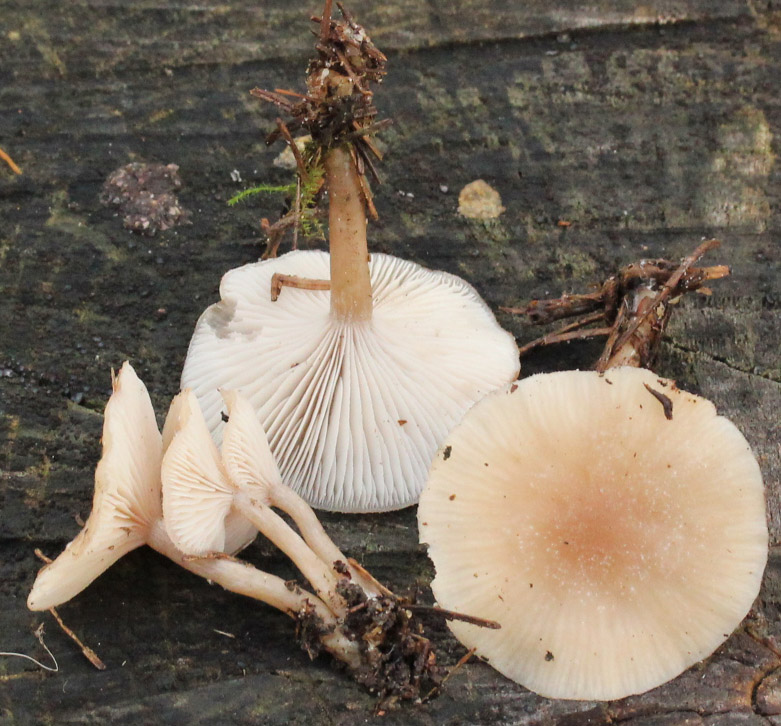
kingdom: Fungi
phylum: Basidiomycota
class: Agaricomycetes
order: Agaricales
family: Tricholomataceae
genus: Clitocybe
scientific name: Clitocybe fragrans
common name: vellugtende tragthat
